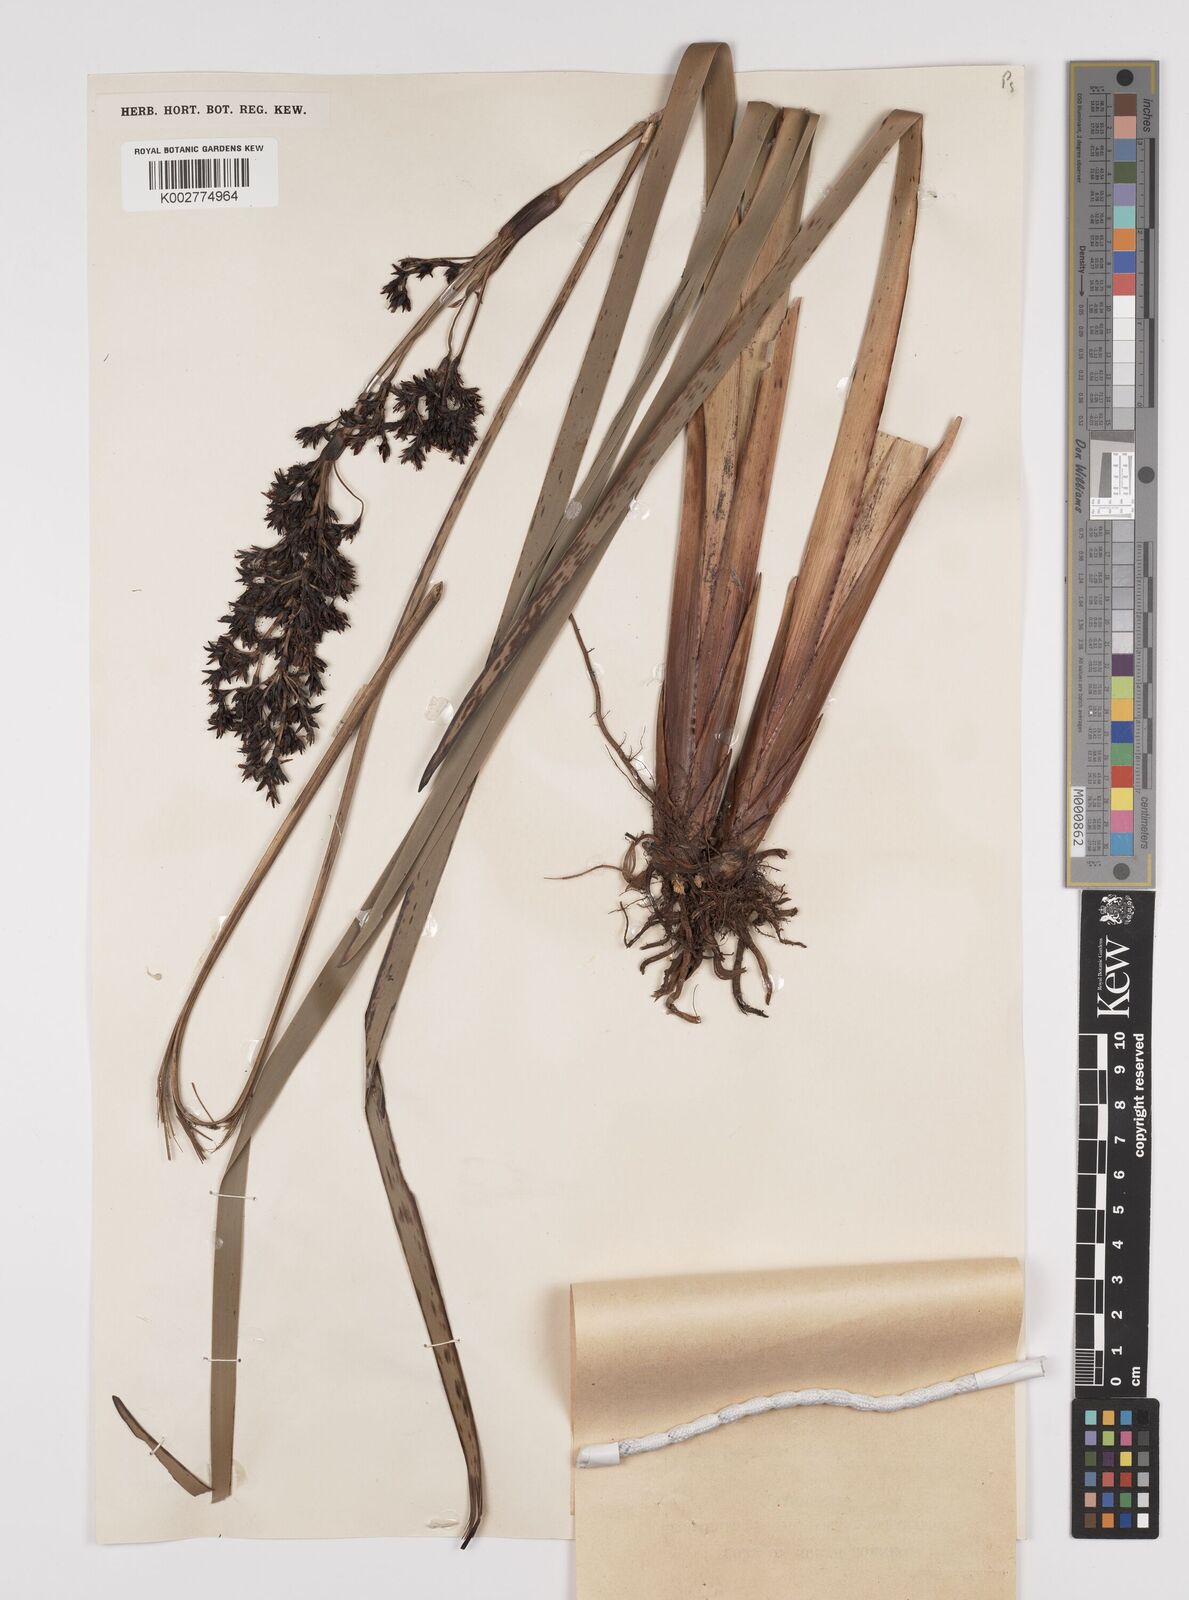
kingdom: Plantae
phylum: Tracheophyta
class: Liliopsida
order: Poales
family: Cyperaceae
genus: Machaerina
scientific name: Machaerina falcata
